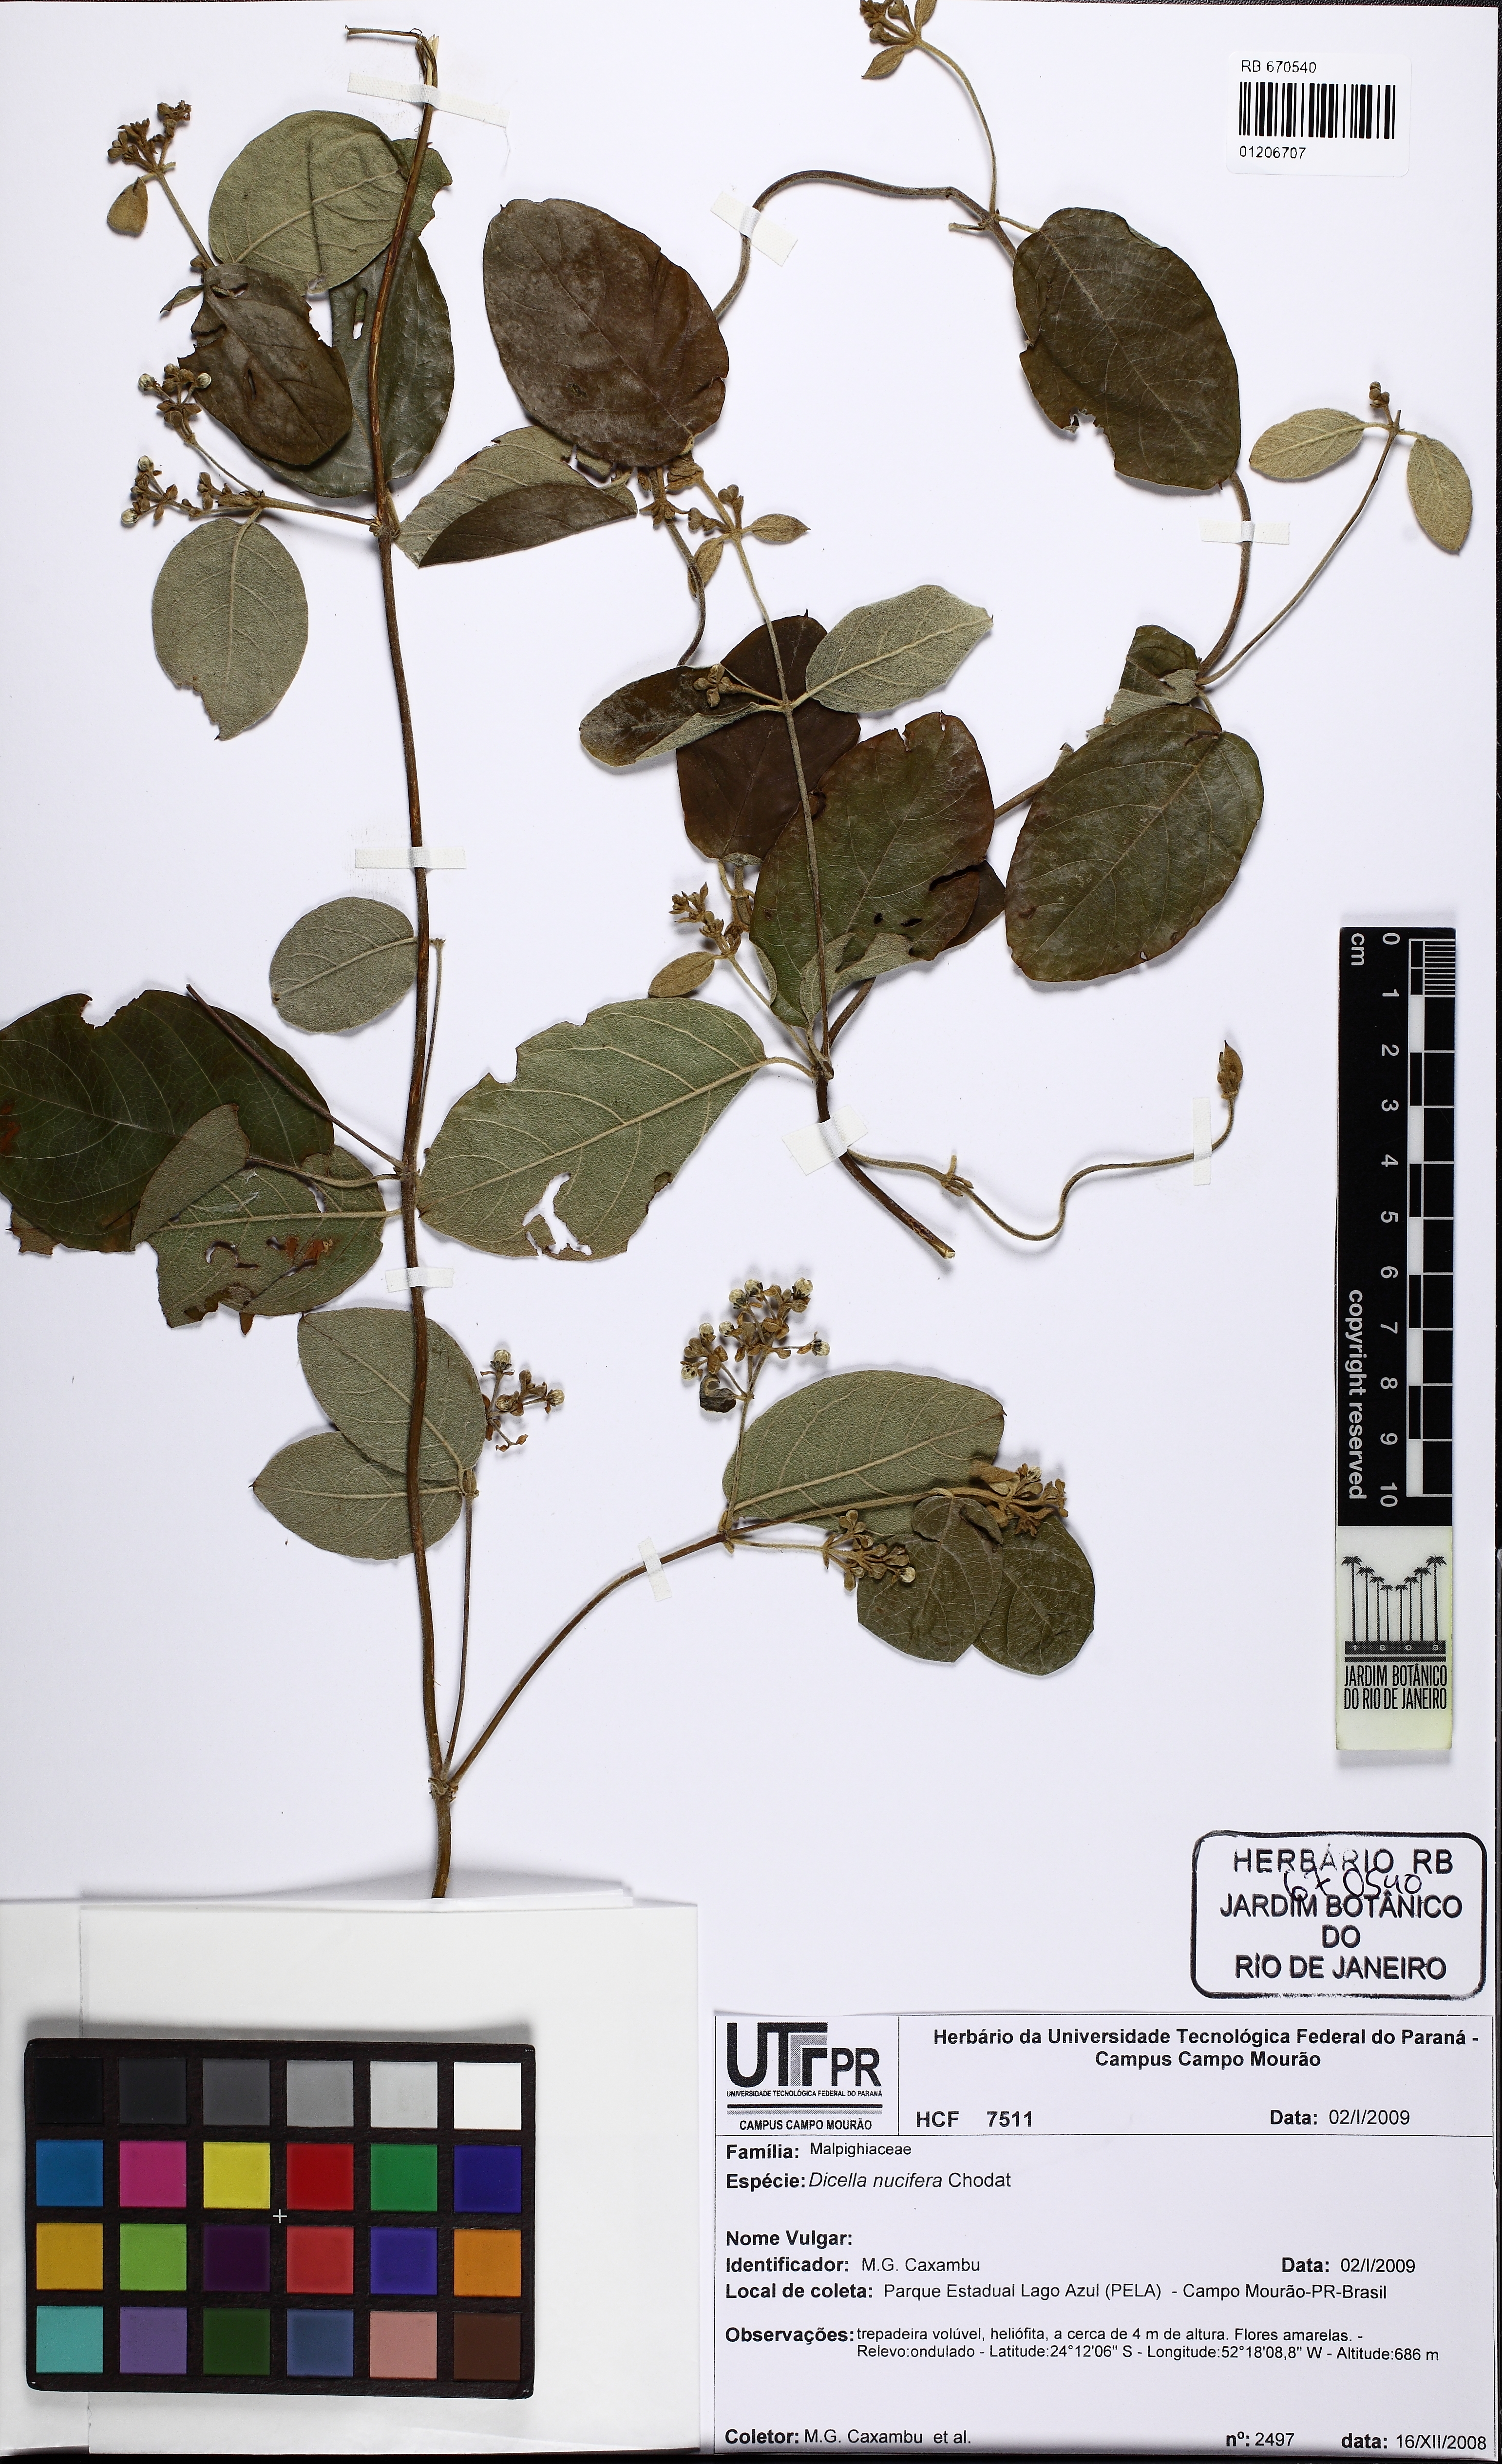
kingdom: Plantae
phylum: Tracheophyta
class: Magnoliopsida
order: Malpighiales
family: Malpighiaceae
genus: Dicella
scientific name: Dicella nucifera
